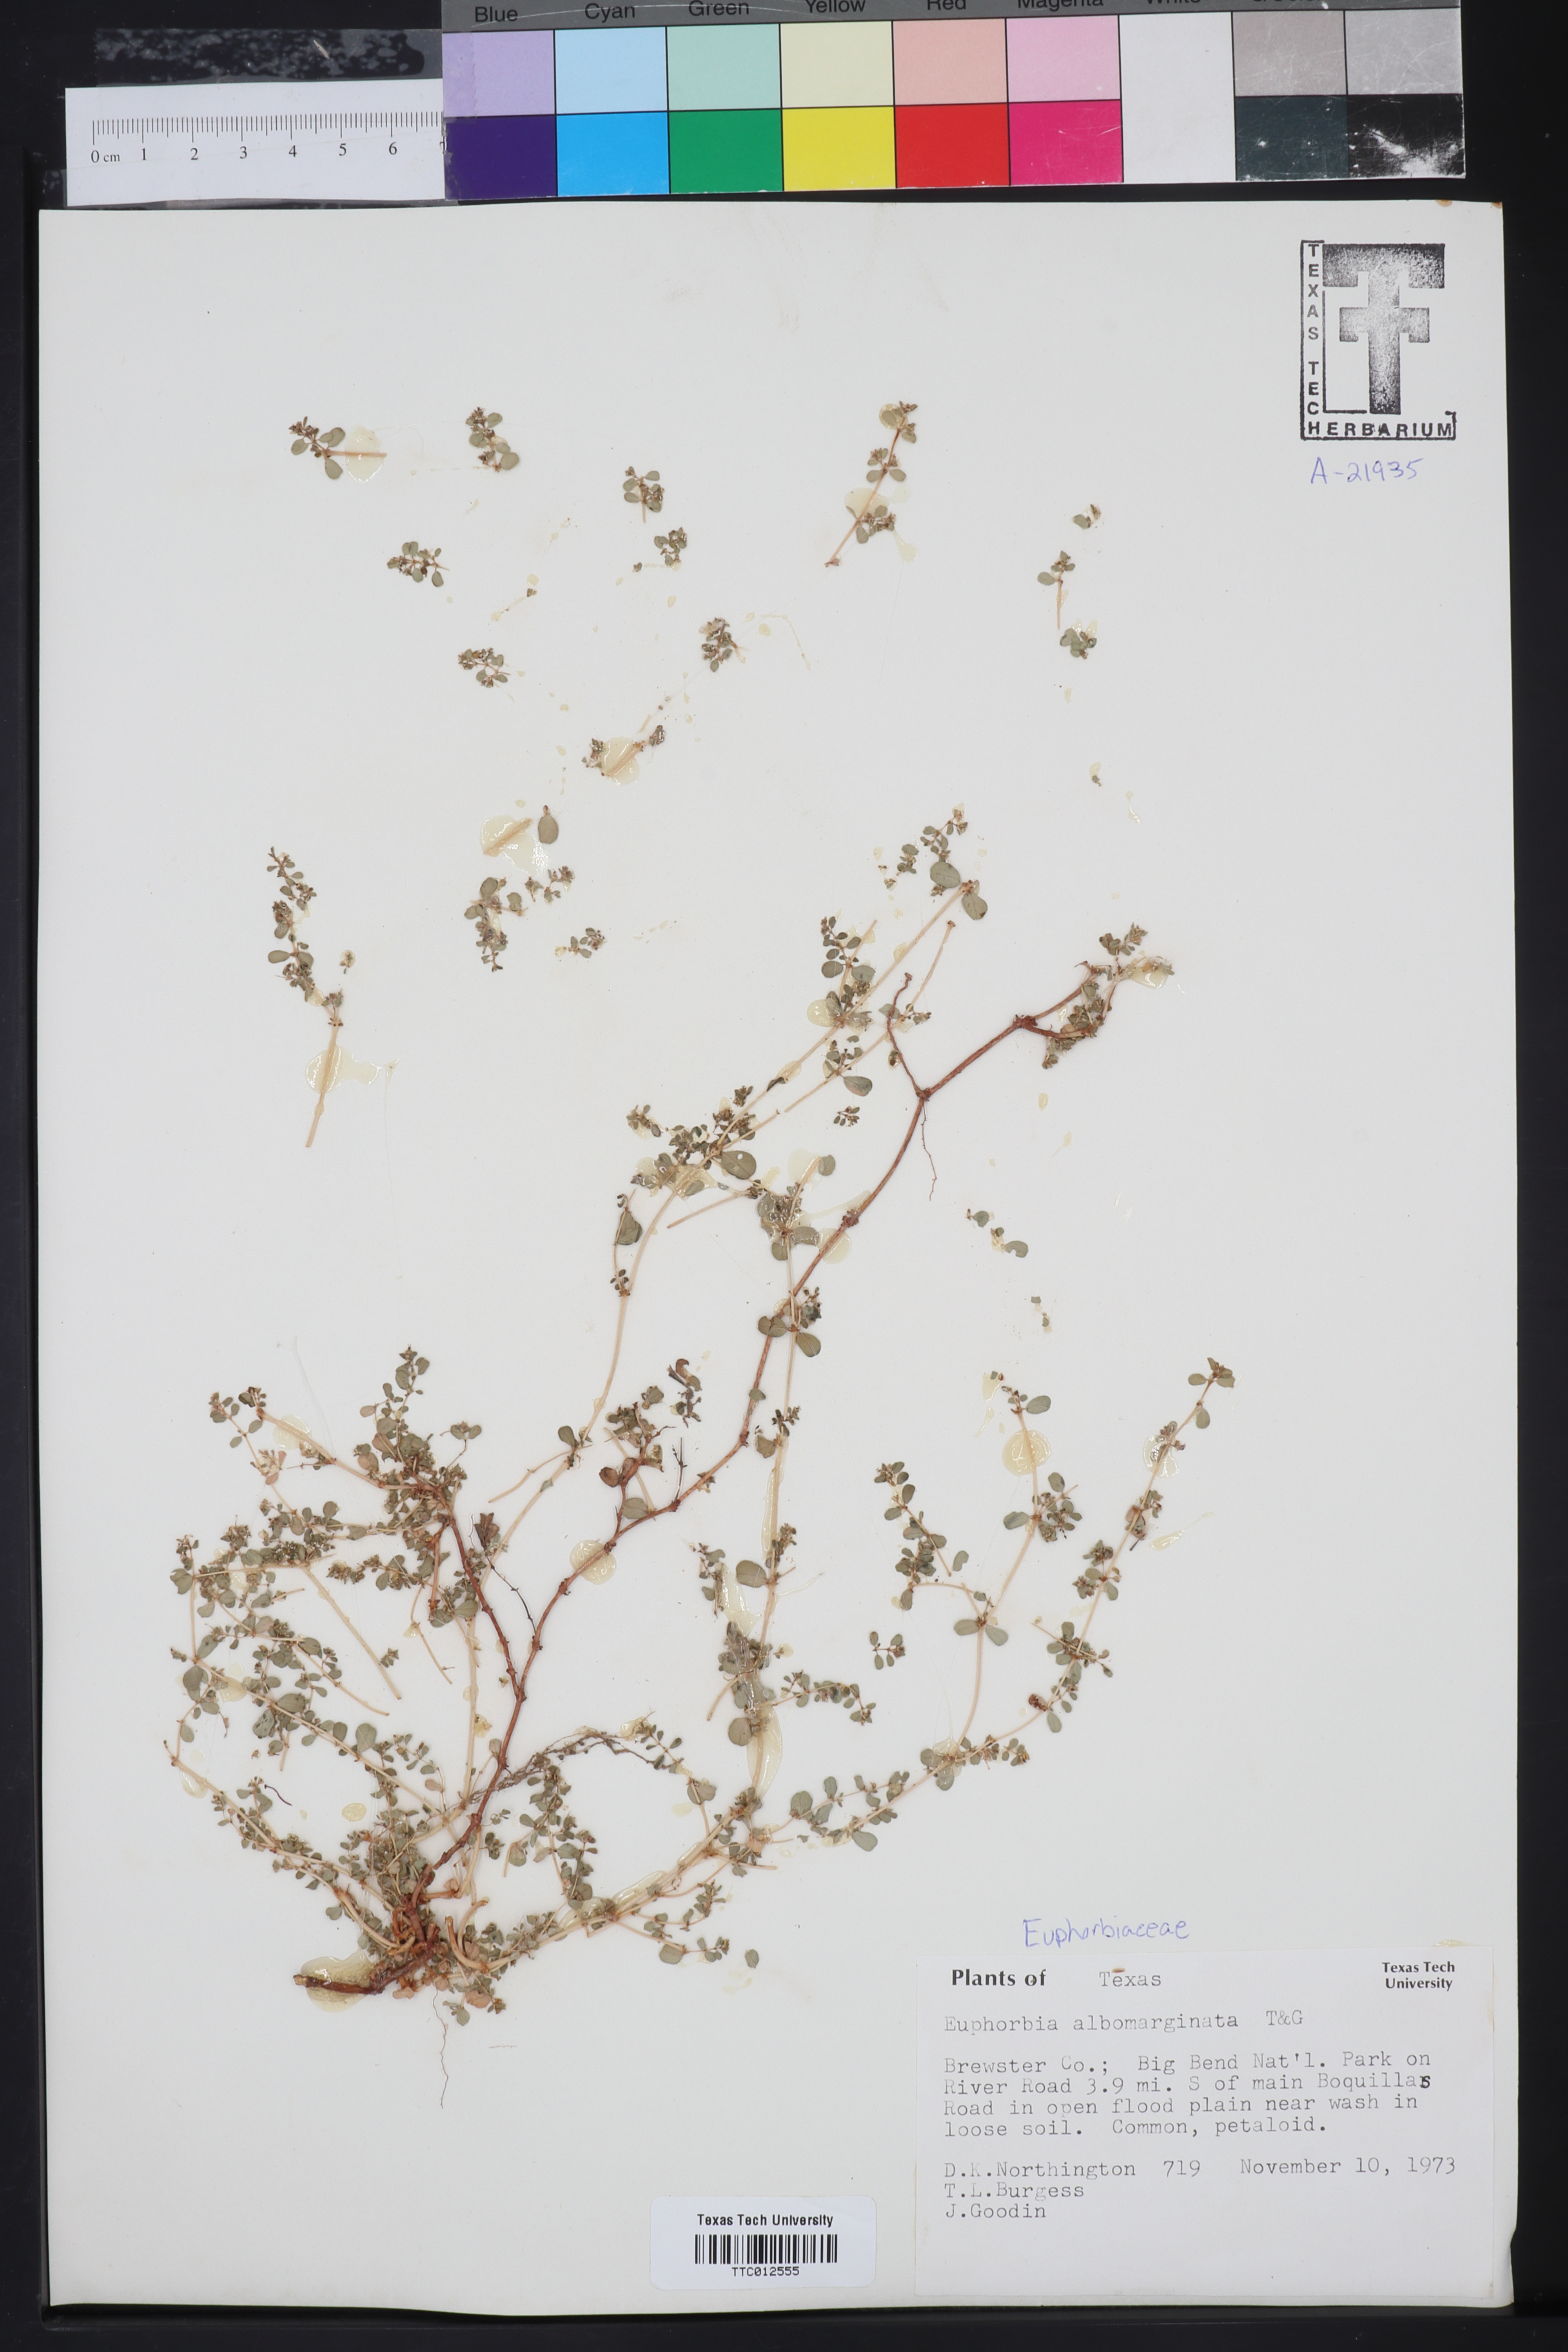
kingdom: Plantae
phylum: Tracheophyta
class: Magnoliopsida
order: Malpighiales
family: Euphorbiaceae
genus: Euphorbia
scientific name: Euphorbia albomarginata
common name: Whitemargin sandmat
